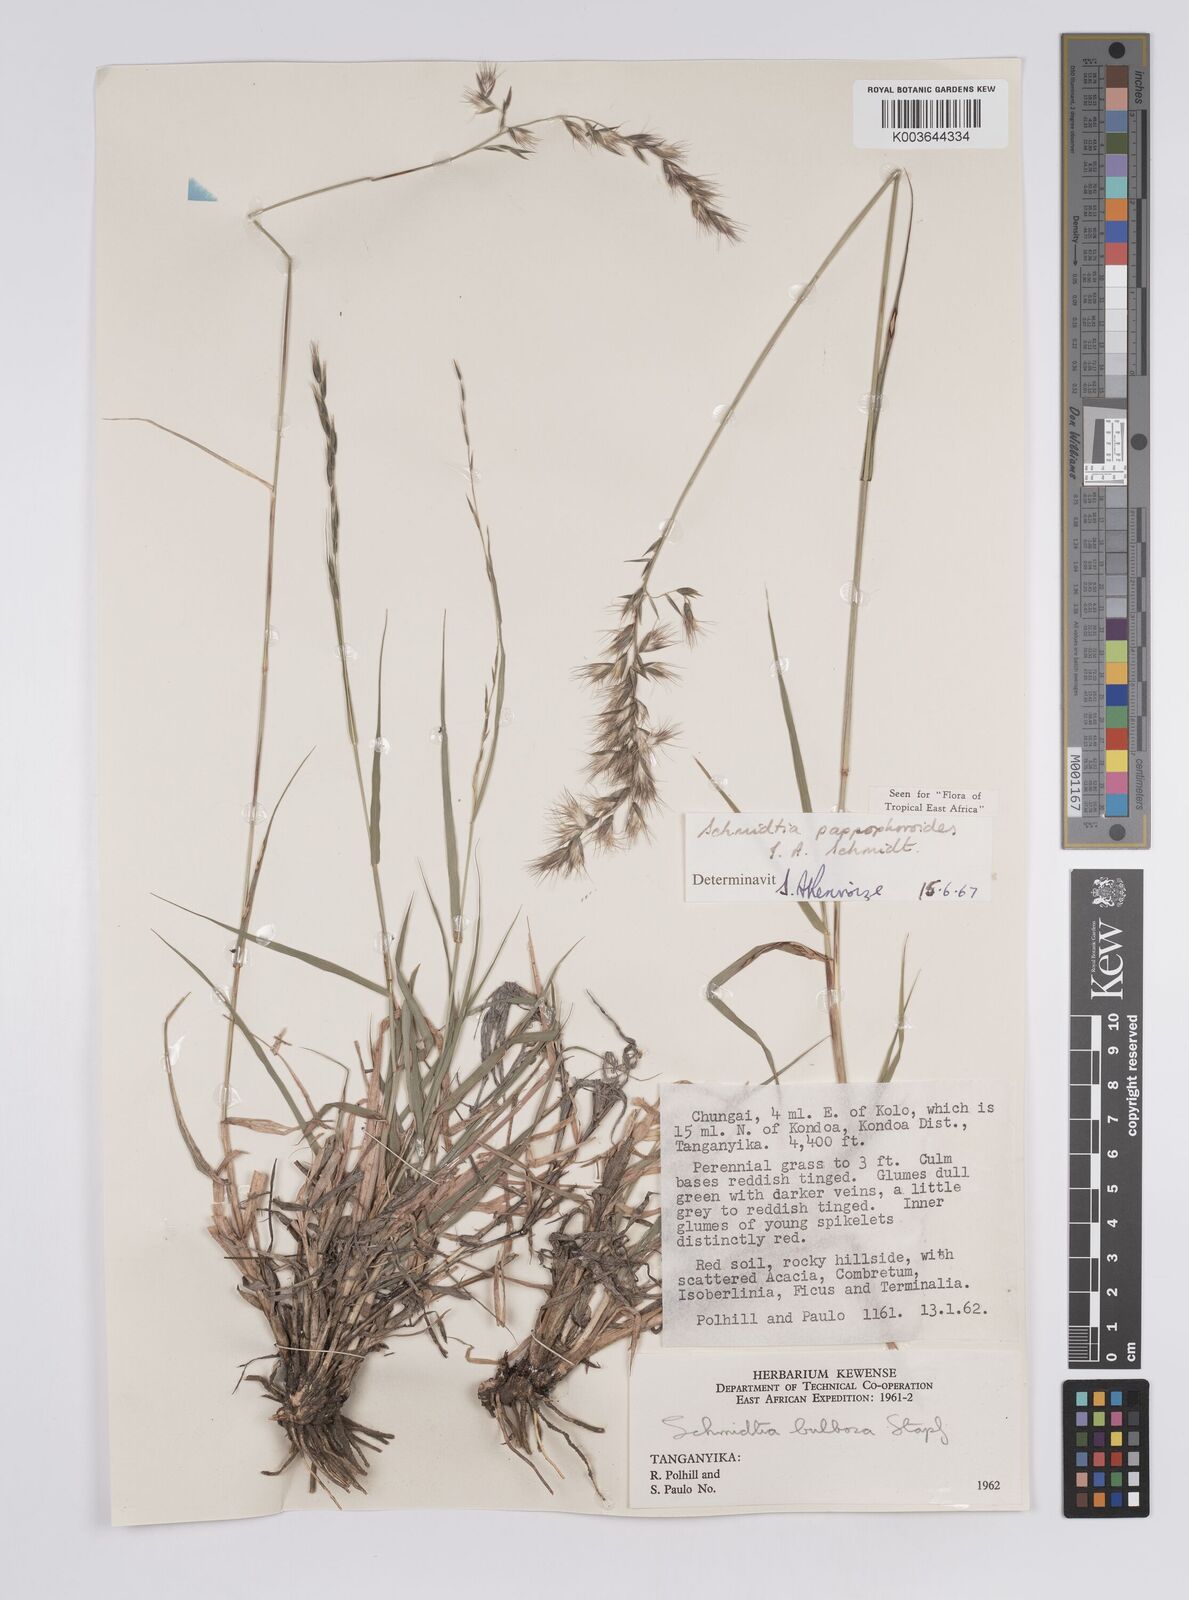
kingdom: Plantae
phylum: Tracheophyta
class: Liliopsida
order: Poales
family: Poaceae
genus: Schmidtia
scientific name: Schmidtia pappophoroides
